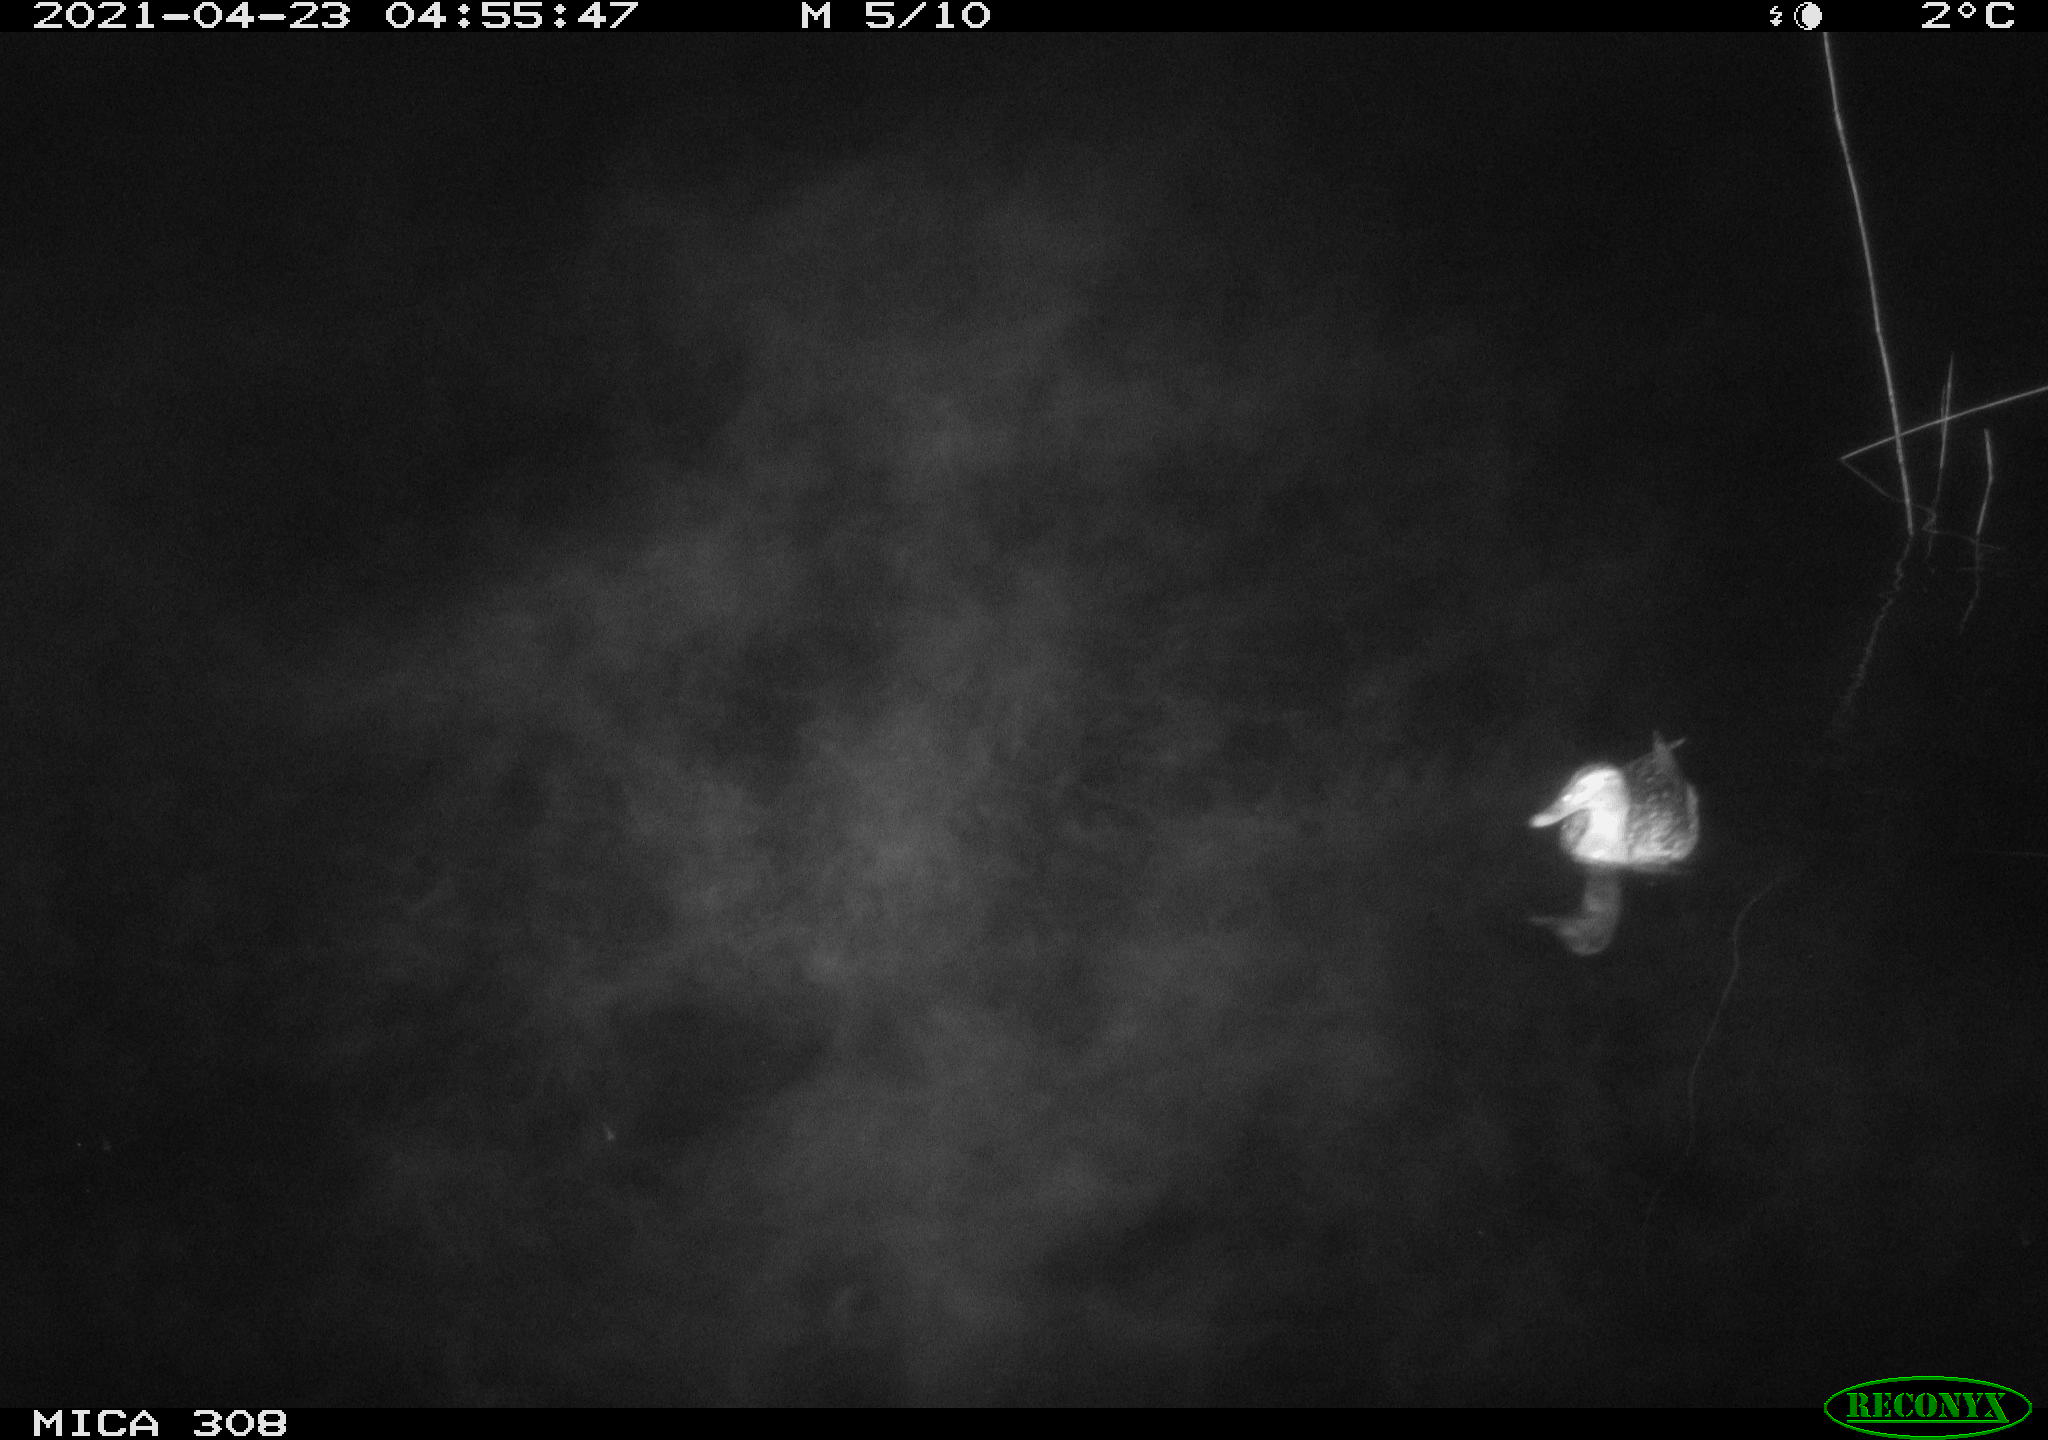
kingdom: Animalia
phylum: Chordata
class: Aves
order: Anseriformes
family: Anatidae
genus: Anas
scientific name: Anas platyrhynchos
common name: Mallard
